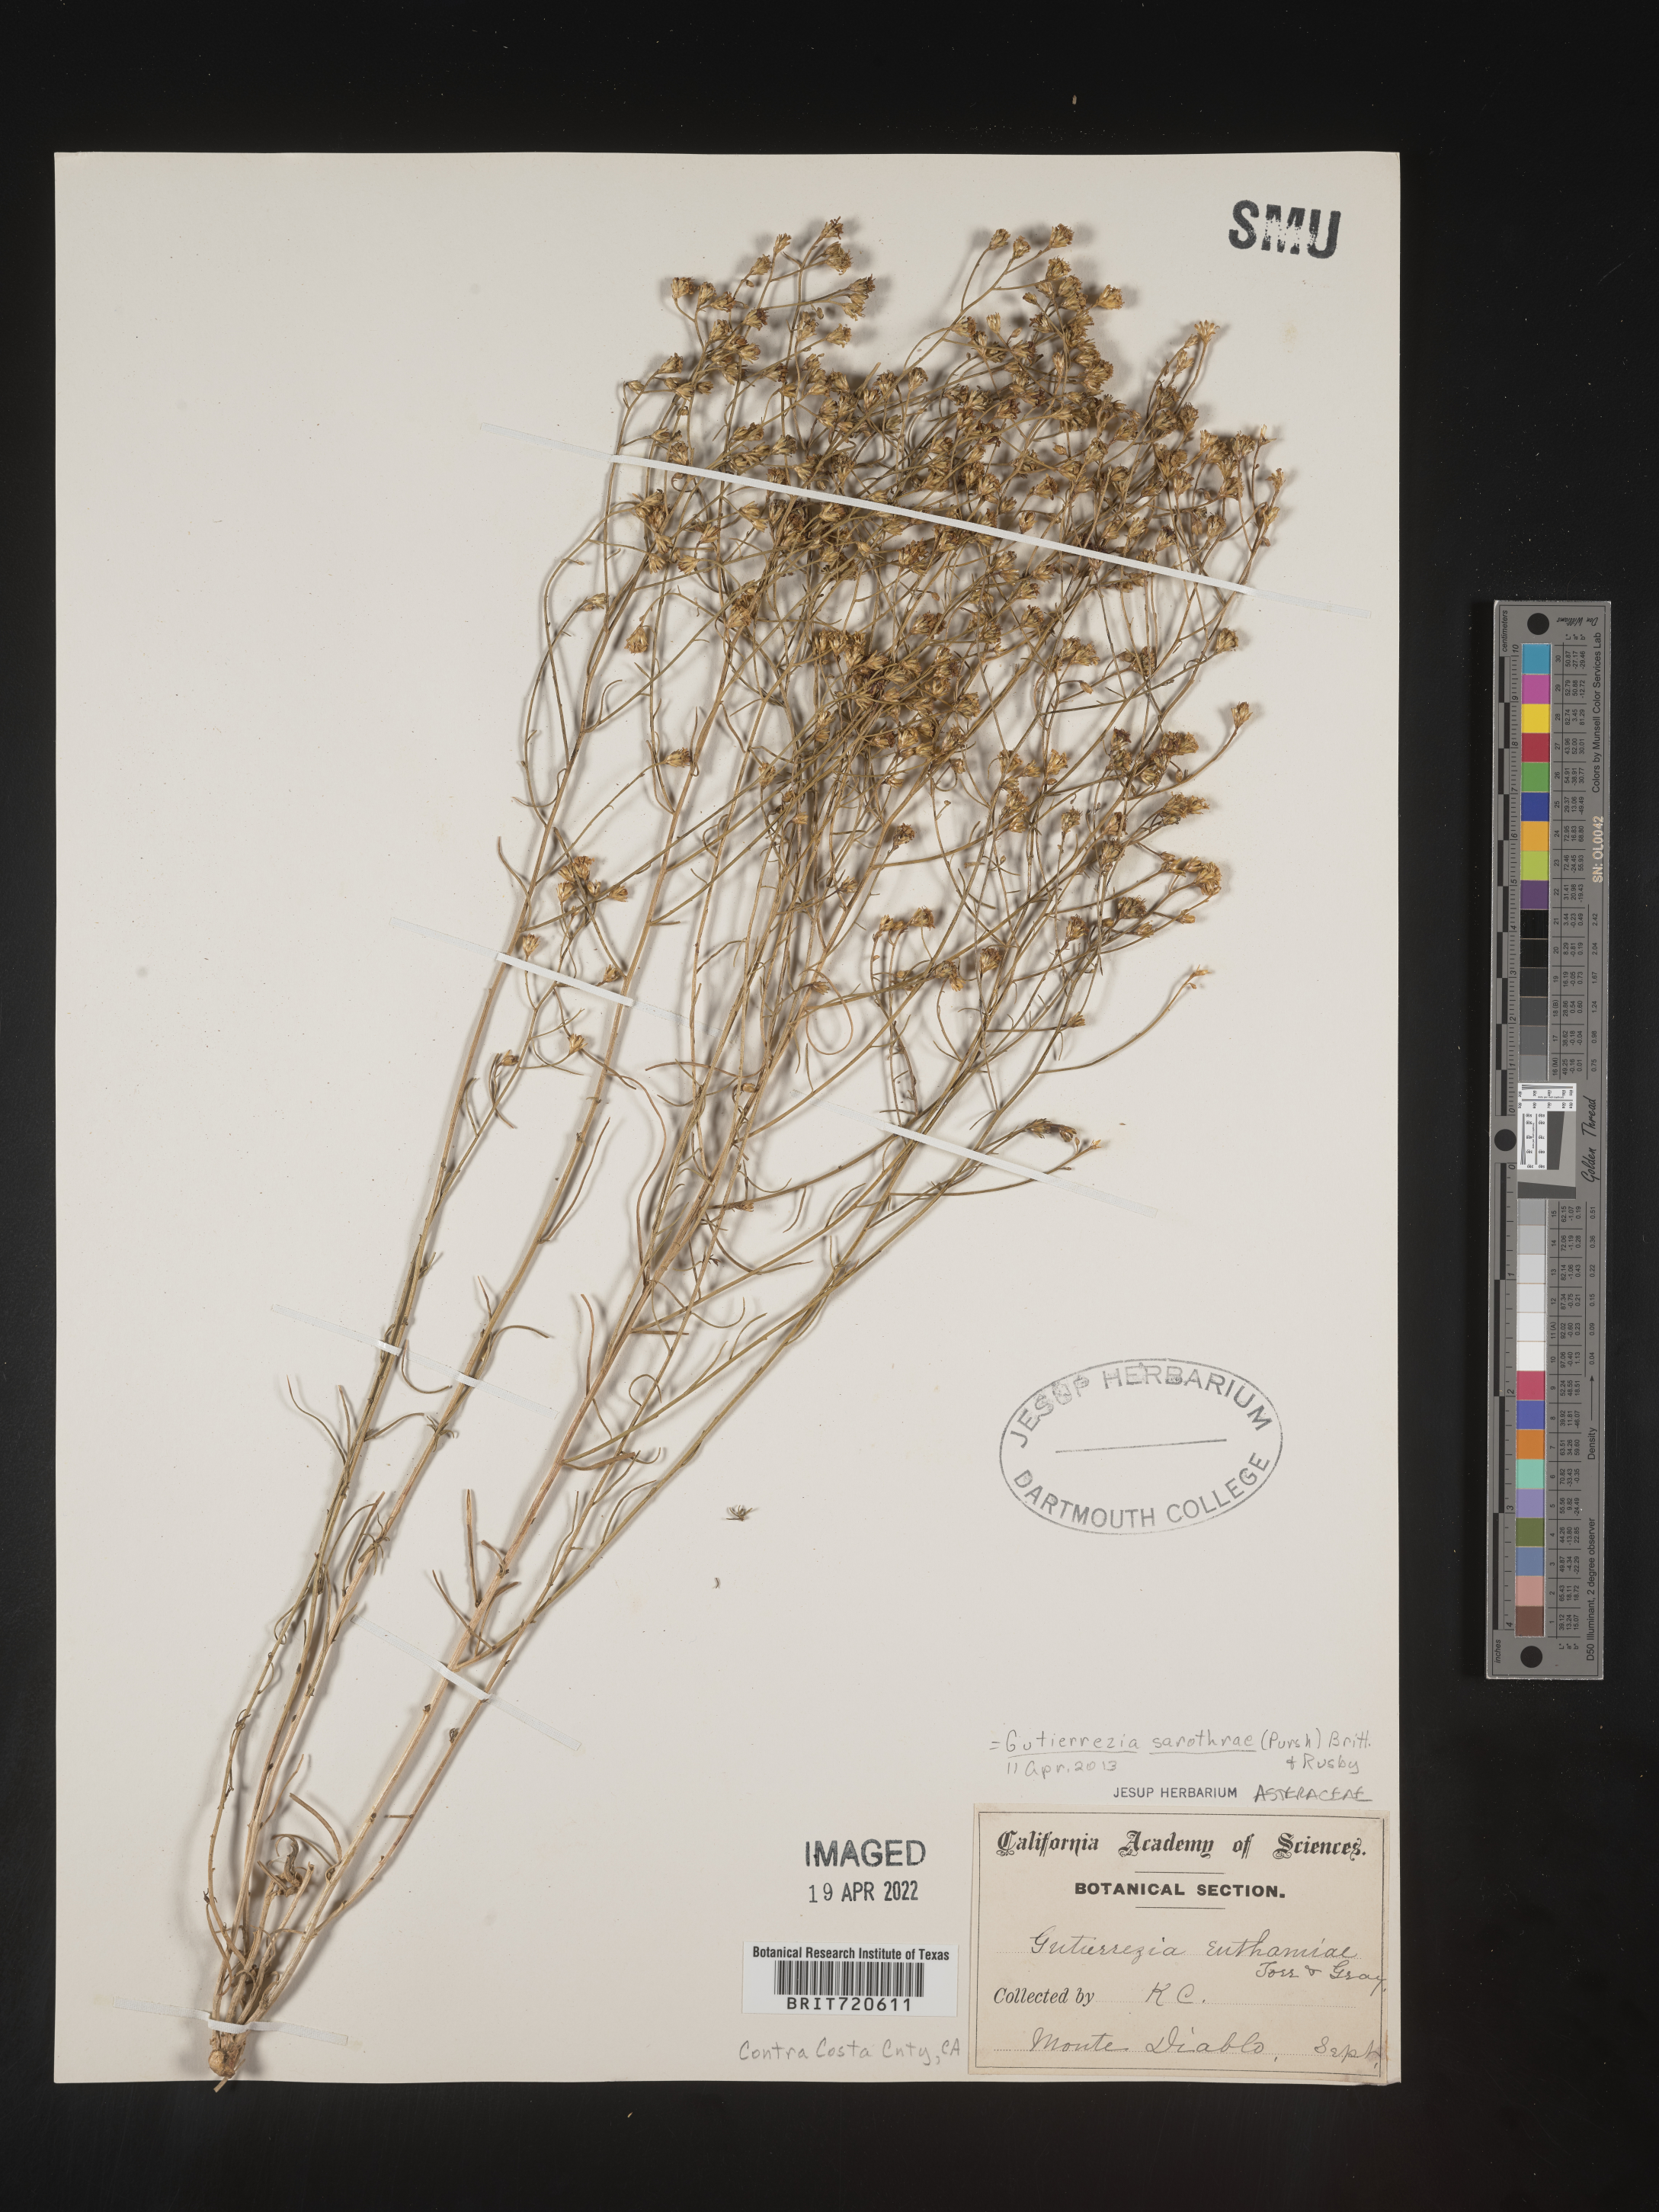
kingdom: Plantae
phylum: Tracheophyta
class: Magnoliopsida
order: Asterales
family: Asteraceae
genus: Gutierrezia
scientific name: Gutierrezia sarothrae
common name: Broom snakeweed
